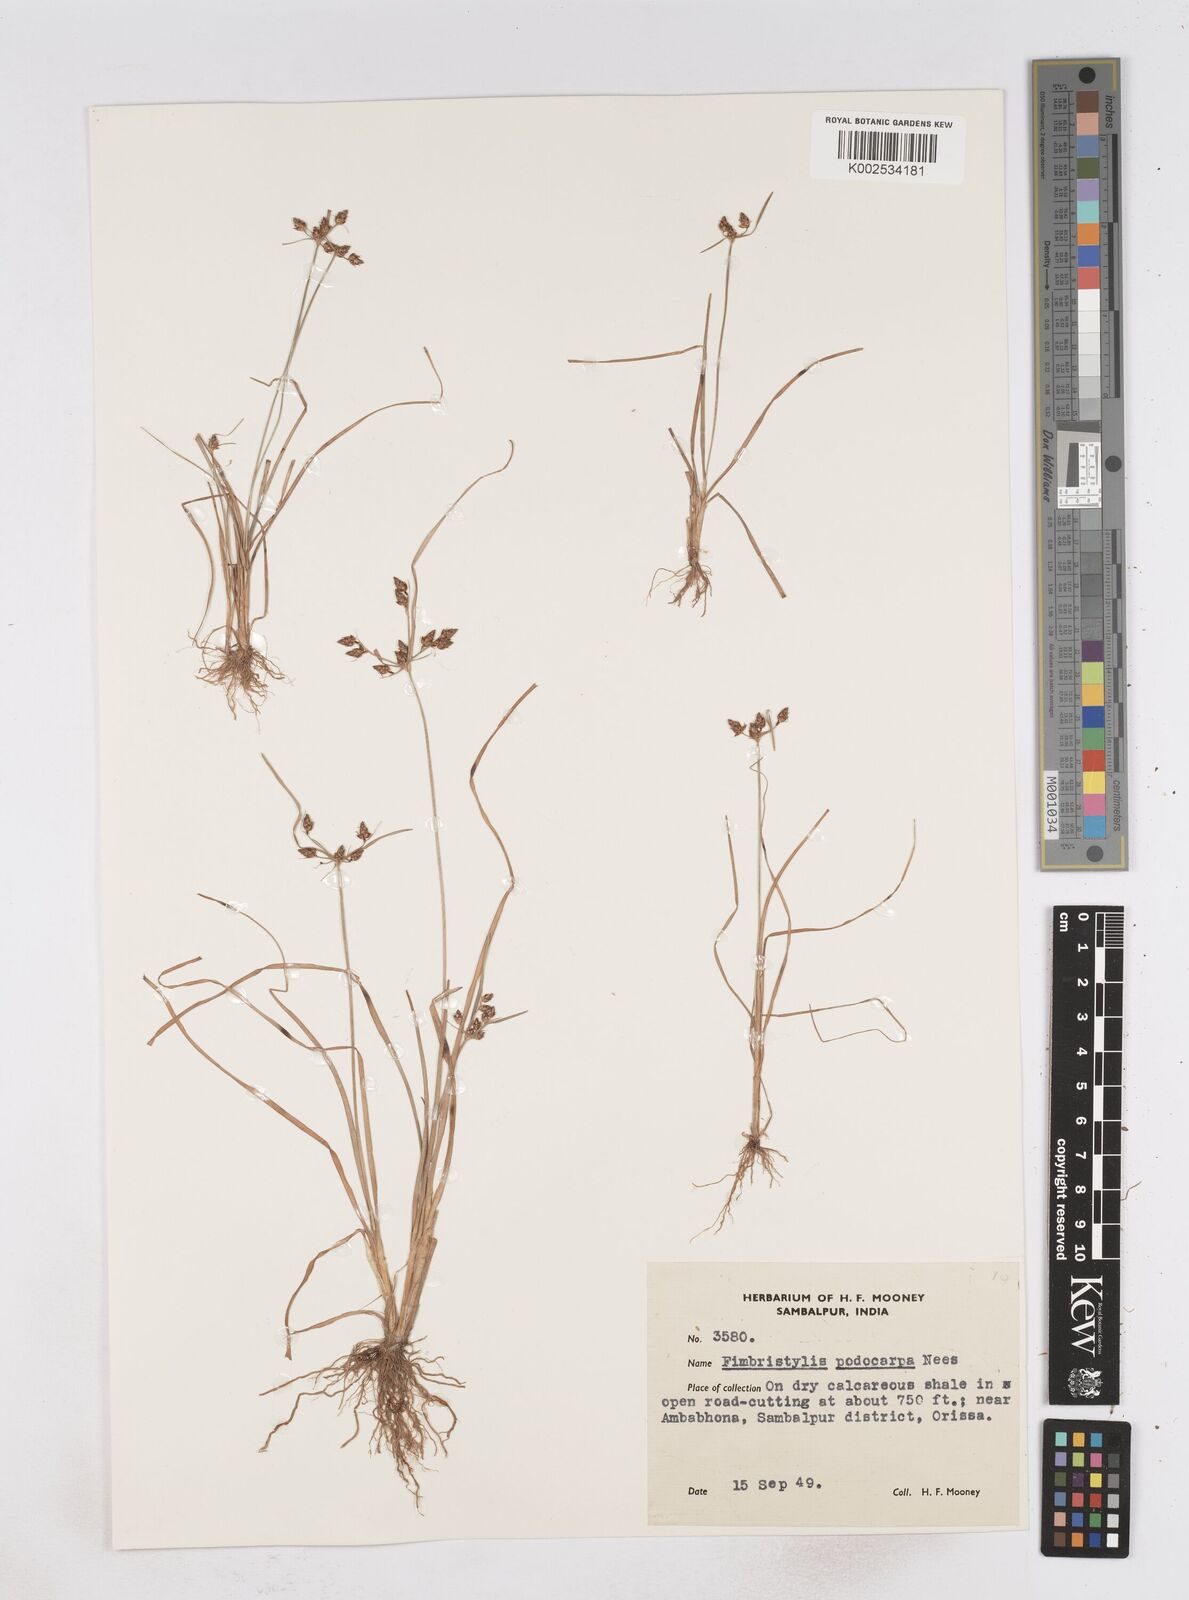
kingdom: Plantae
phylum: Tracheophyta
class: Liliopsida
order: Poales
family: Cyperaceae
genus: Fimbristylis
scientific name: Fimbristylis dichotoma
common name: Forked fimbry
